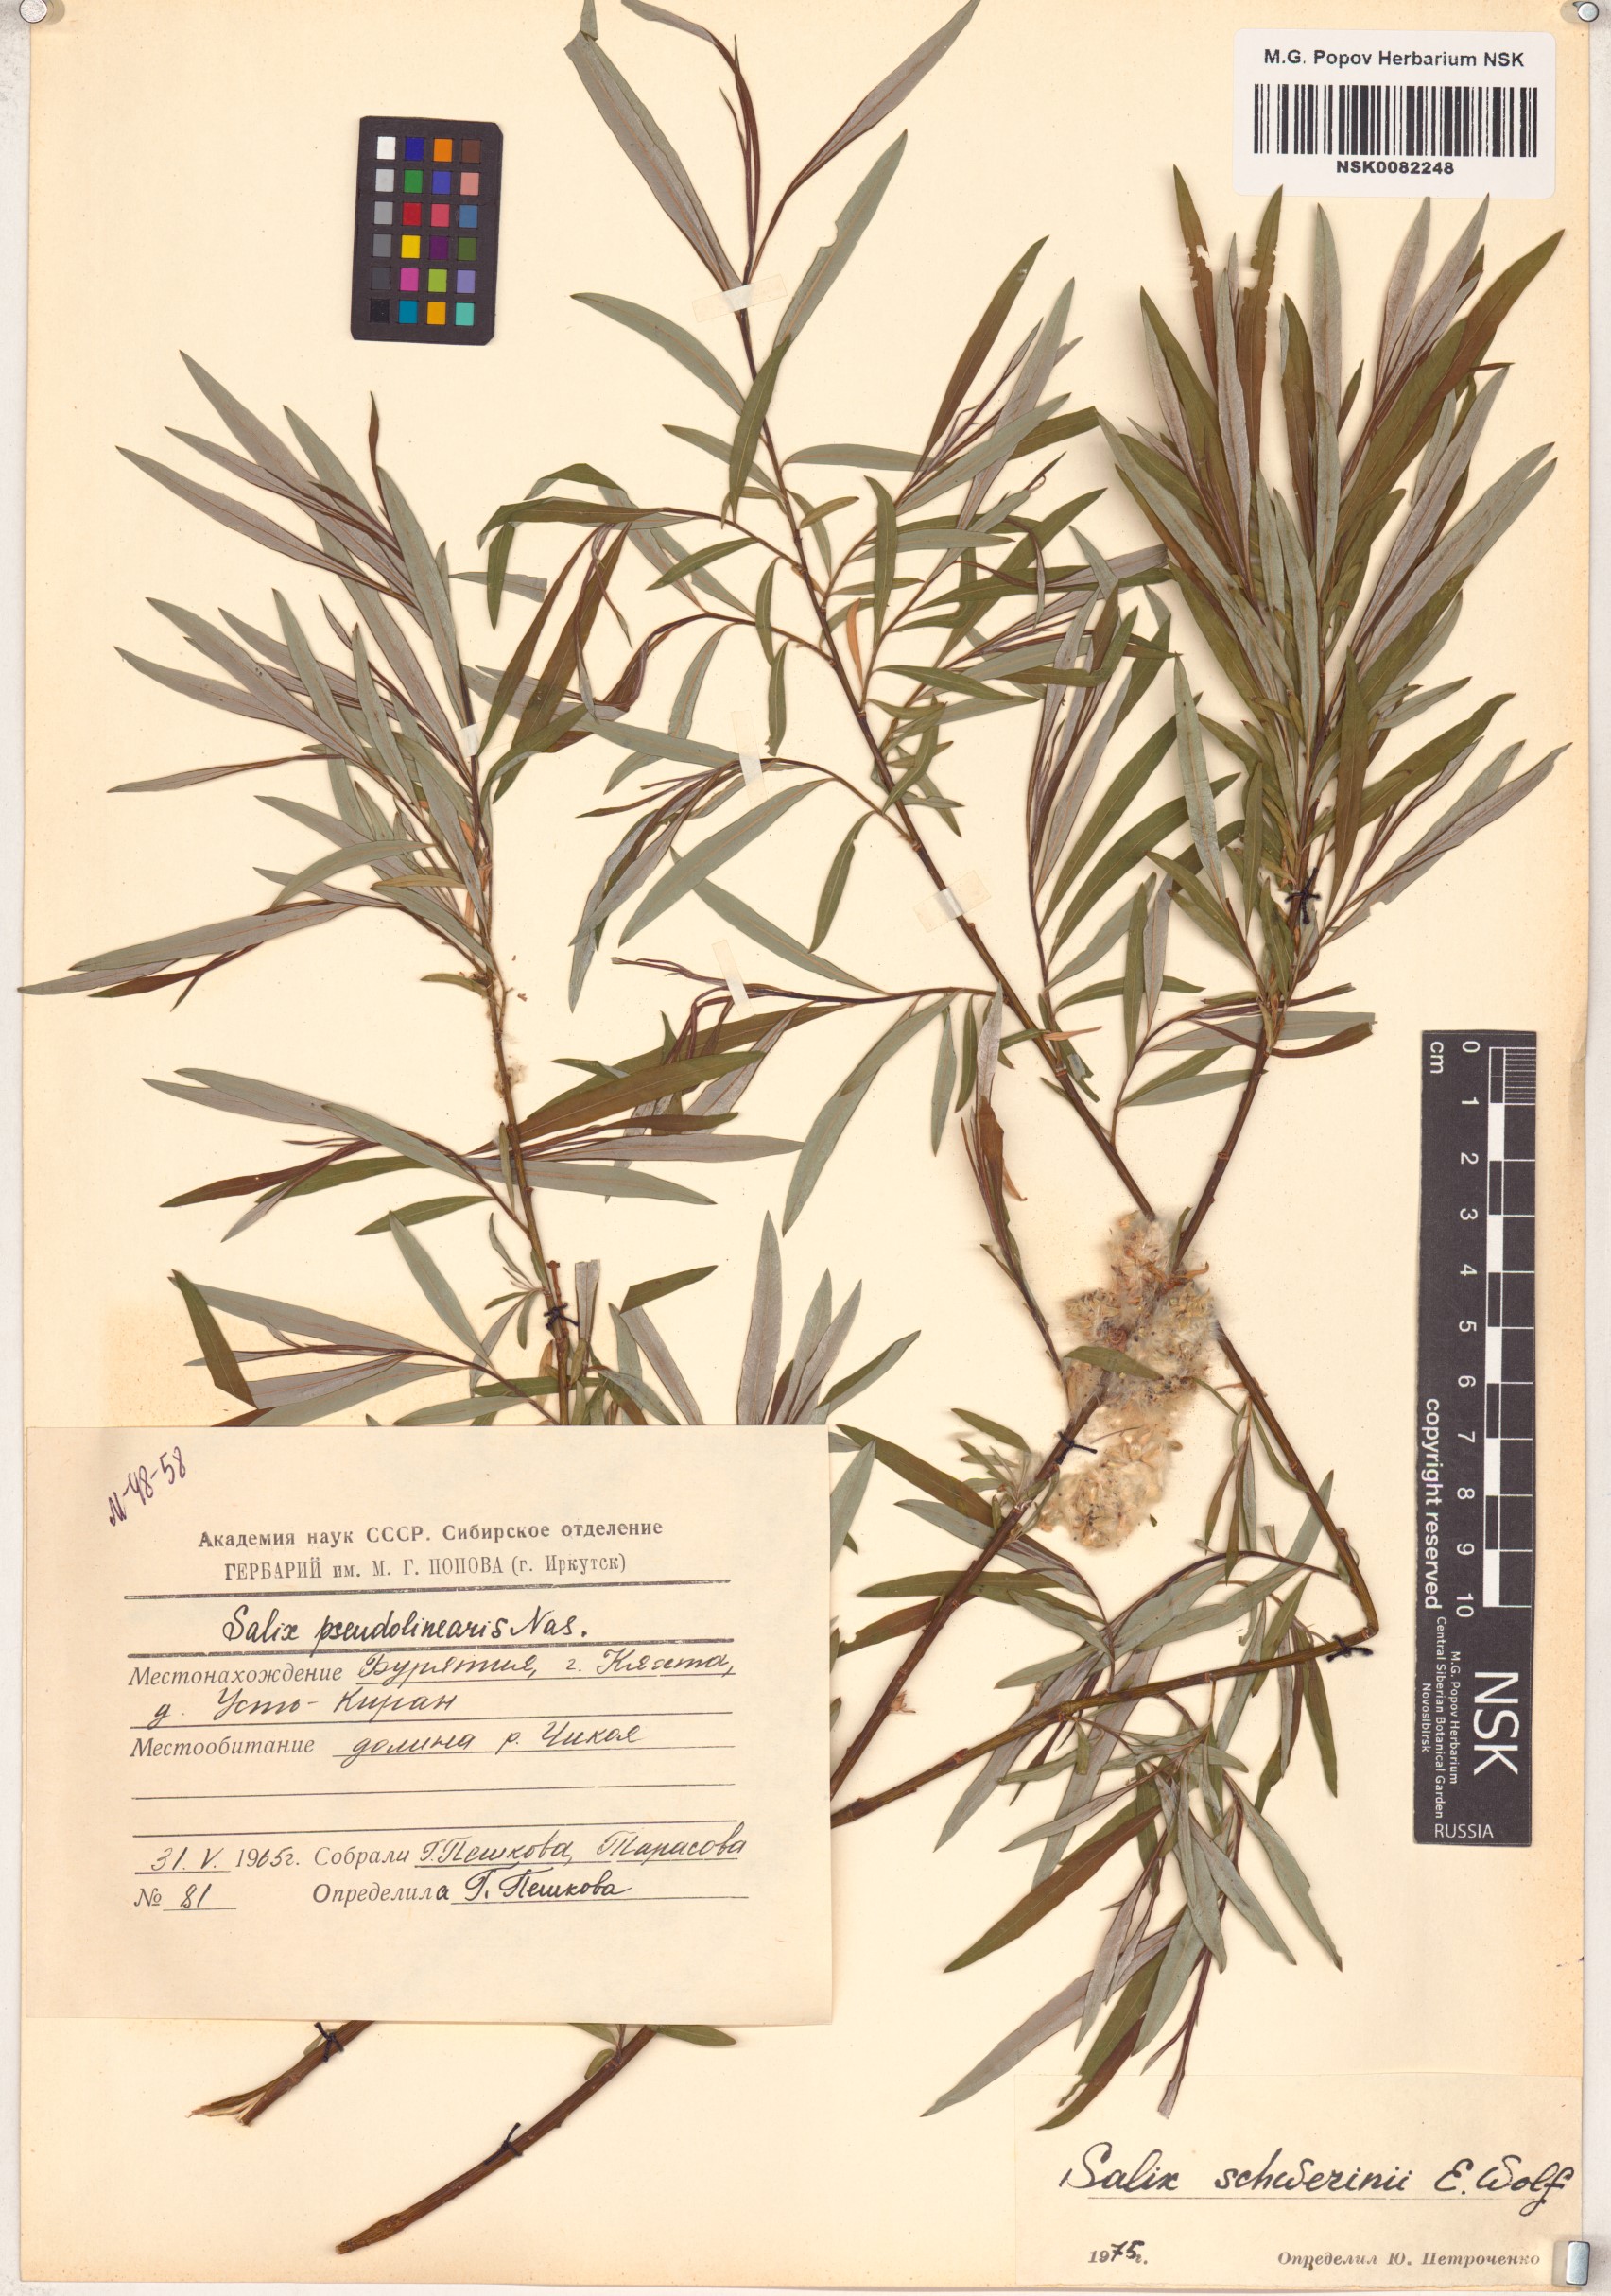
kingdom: Plantae
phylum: Tracheophyta
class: Magnoliopsida
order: Malpighiales
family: Salicaceae
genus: Salix
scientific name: Salix schwerinii
